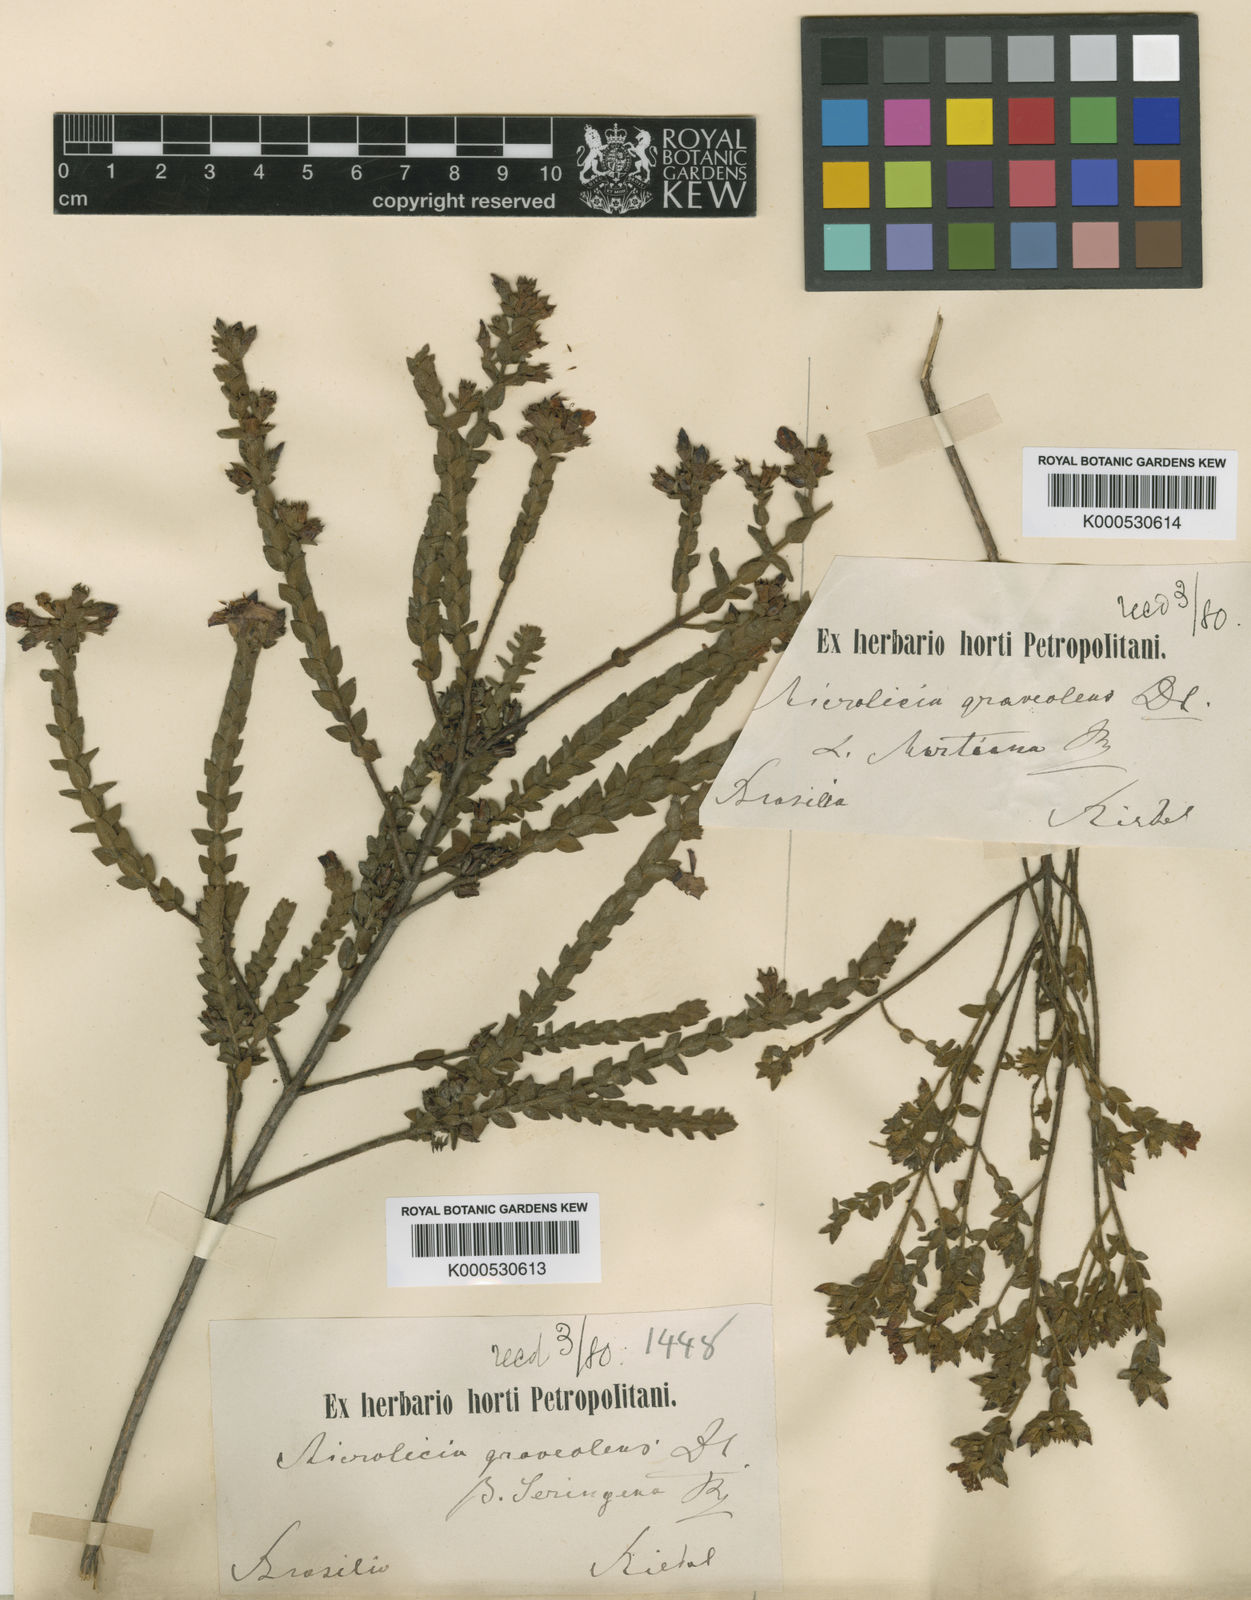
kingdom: Plantae
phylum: Tracheophyta
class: Magnoliopsida
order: Myrtales
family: Melastomataceae
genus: Microlicia
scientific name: Microlicia graveolens
